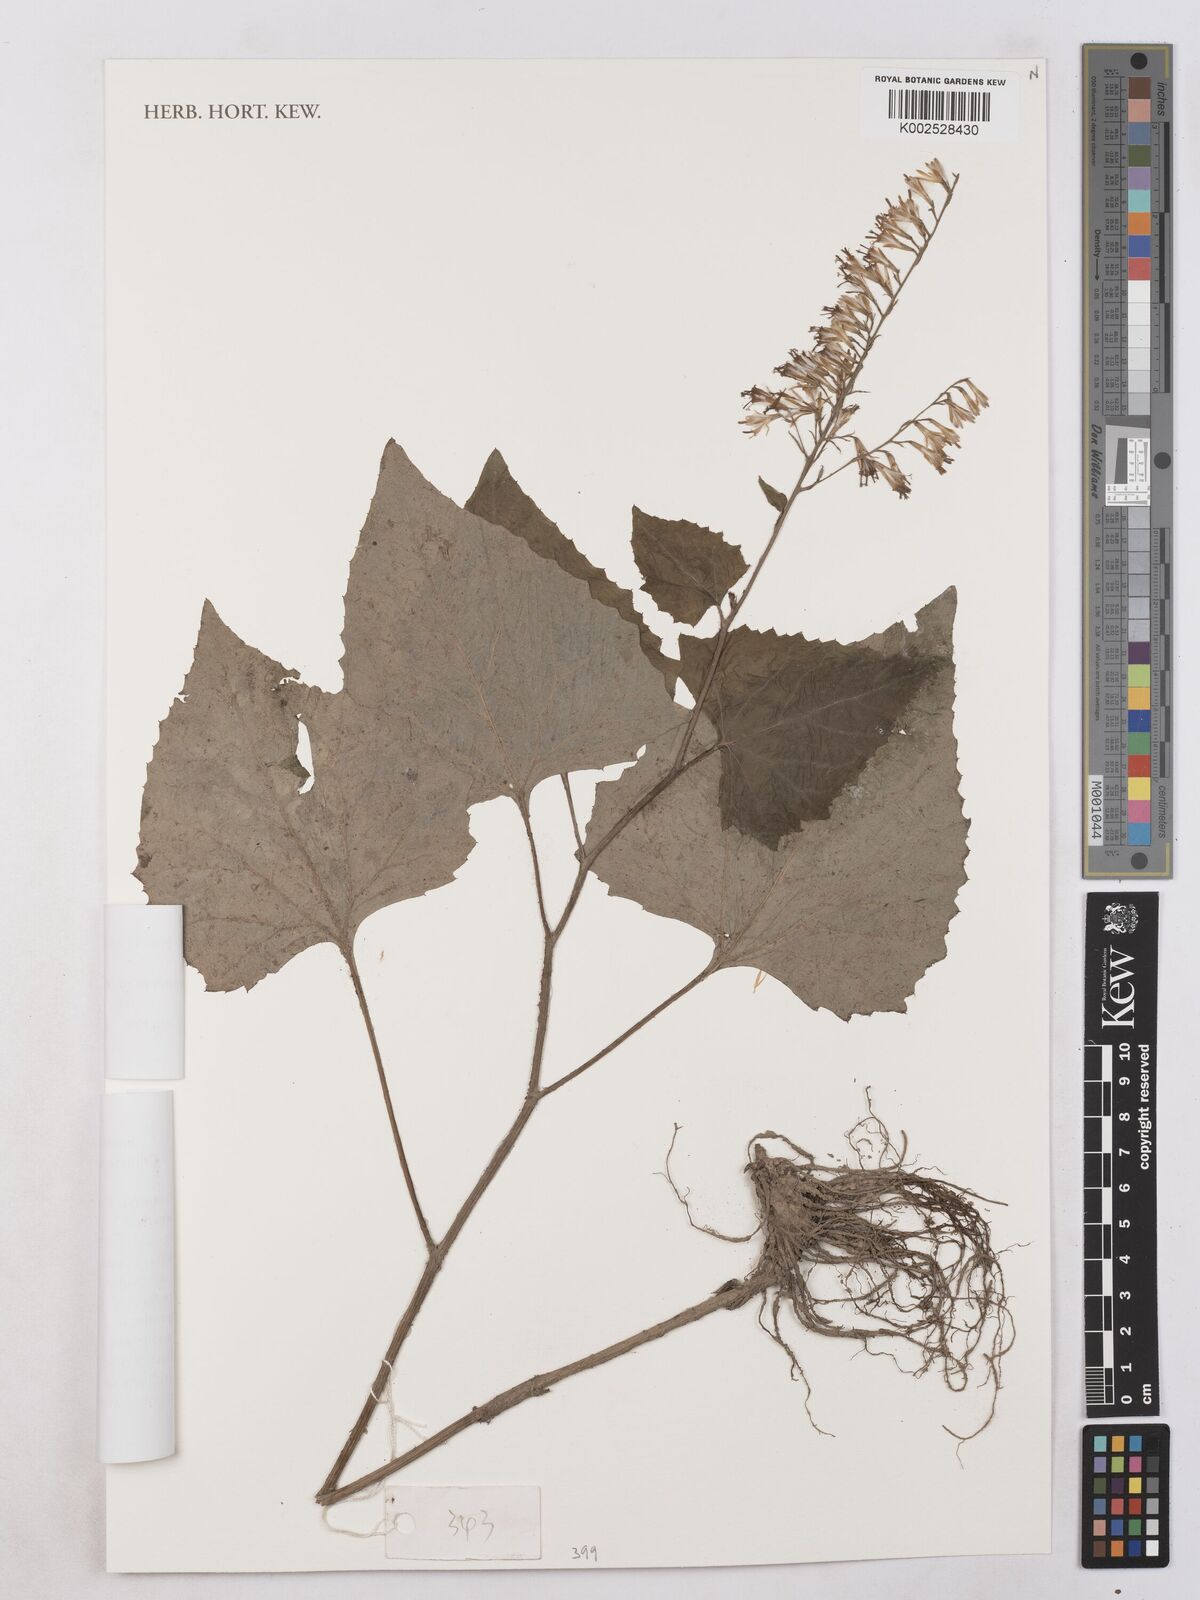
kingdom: Plantae
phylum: Tracheophyta
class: Magnoliopsida
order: Asterales
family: Asteraceae
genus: Parasenecio
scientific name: Parasenecio roborowskii
